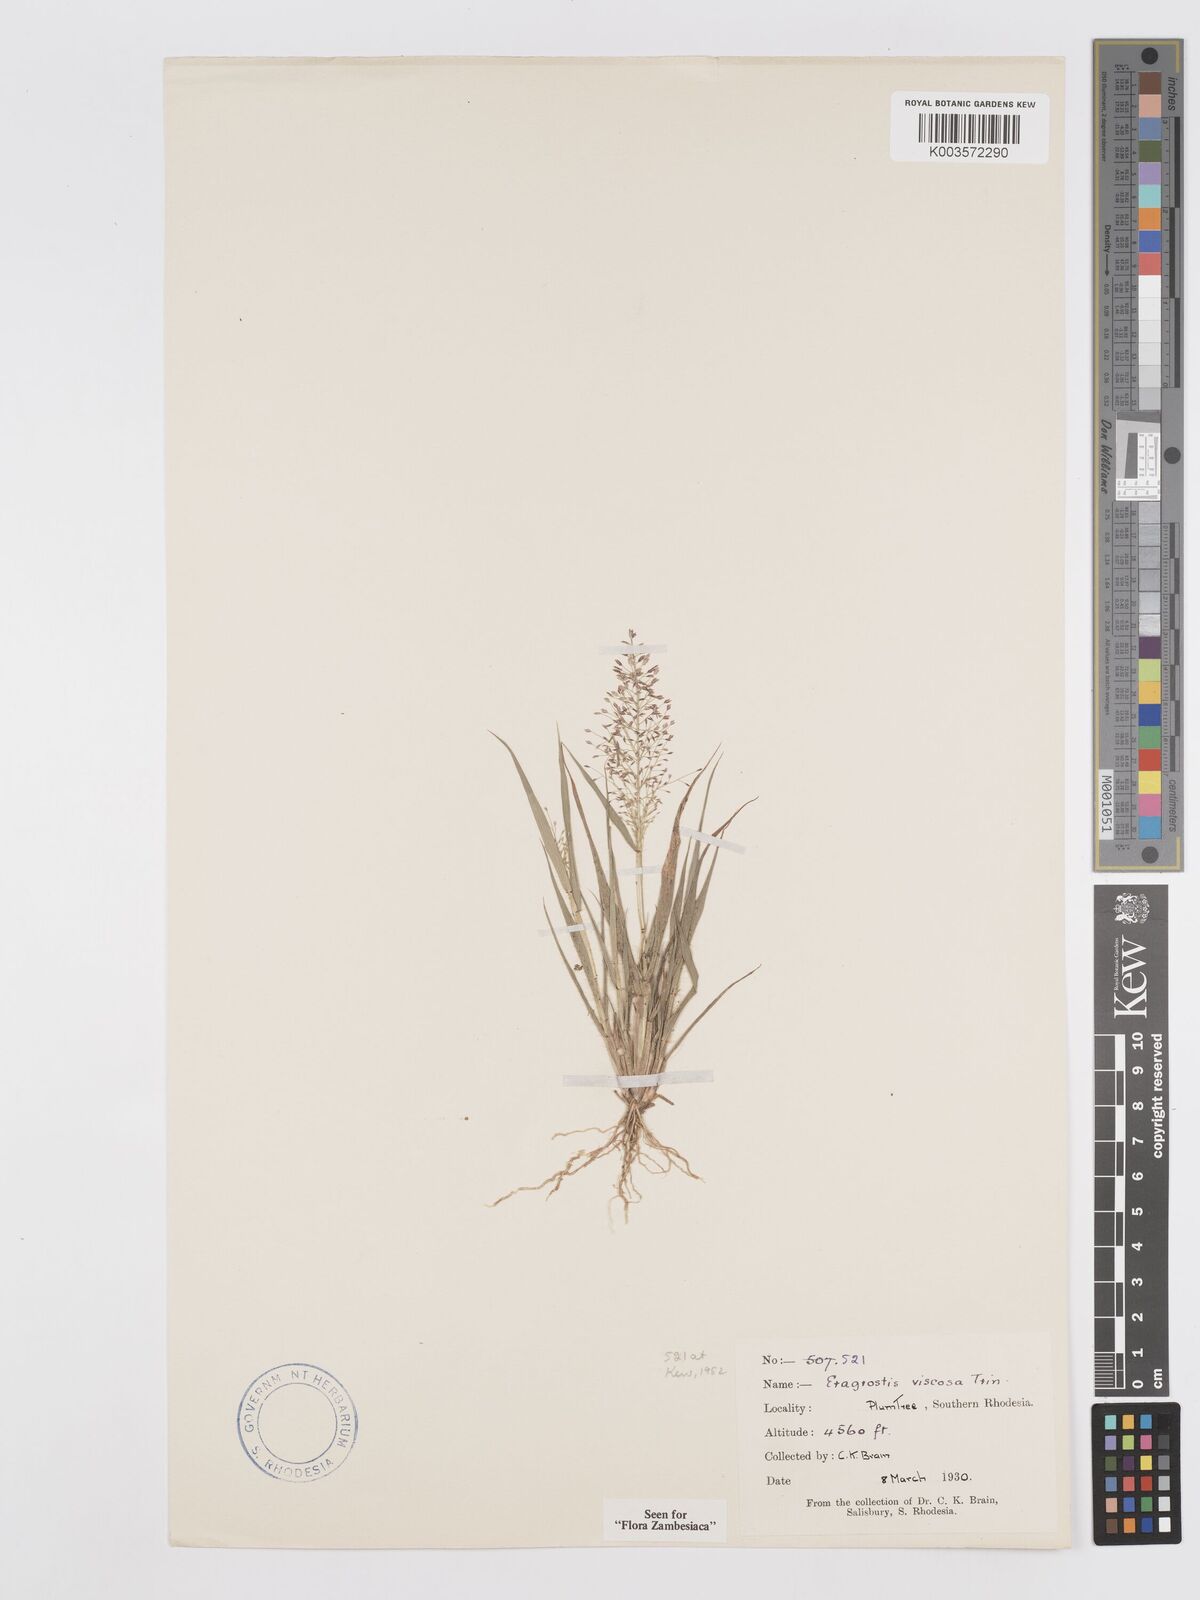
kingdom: Plantae
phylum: Tracheophyta
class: Liliopsida
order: Poales
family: Poaceae
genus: Eragrostis
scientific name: Eragrostis
